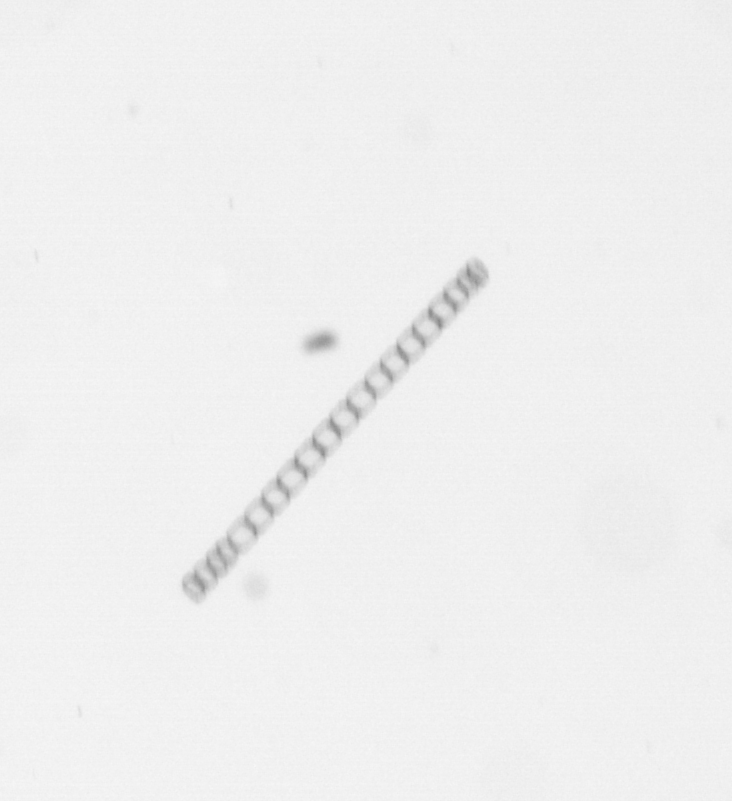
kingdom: Chromista
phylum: Ochrophyta
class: Bacillariophyceae
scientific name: Bacillariophyceae
